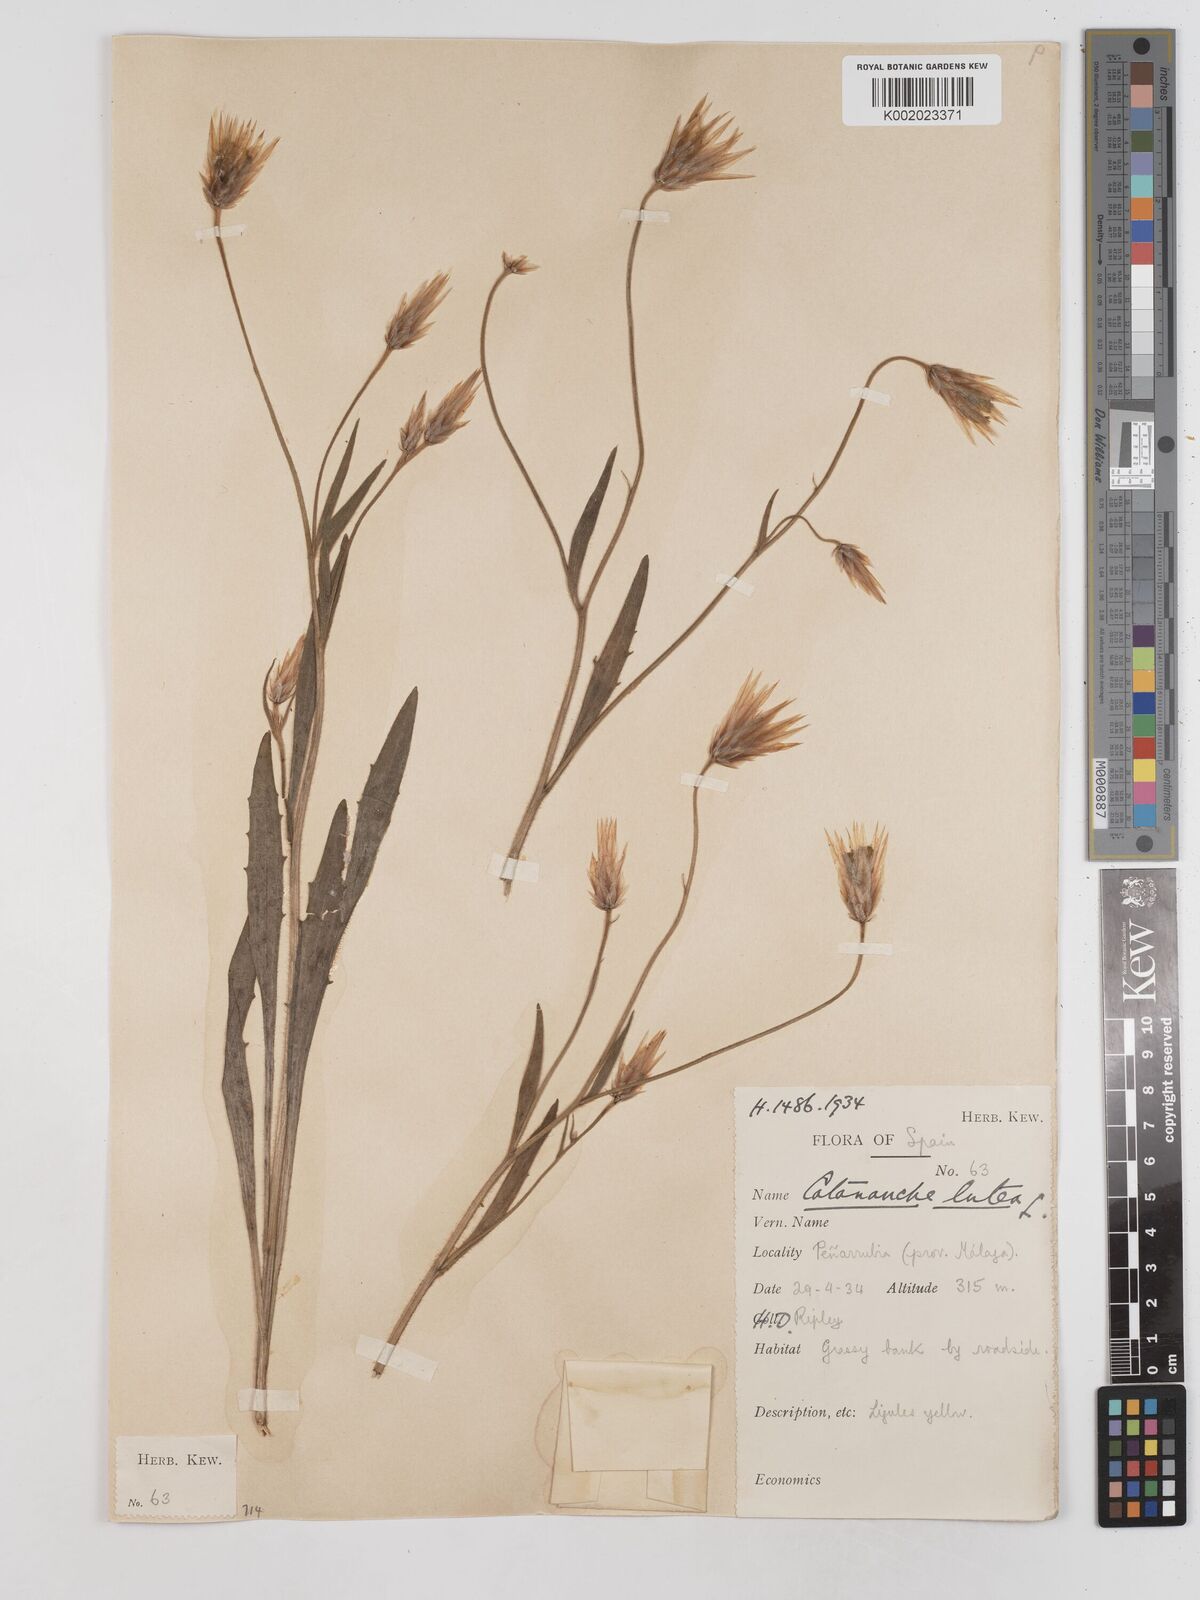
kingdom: Plantae
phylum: Tracheophyta
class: Magnoliopsida
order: Asterales
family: Asteraceae
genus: Catananche
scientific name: Catananche lutea
